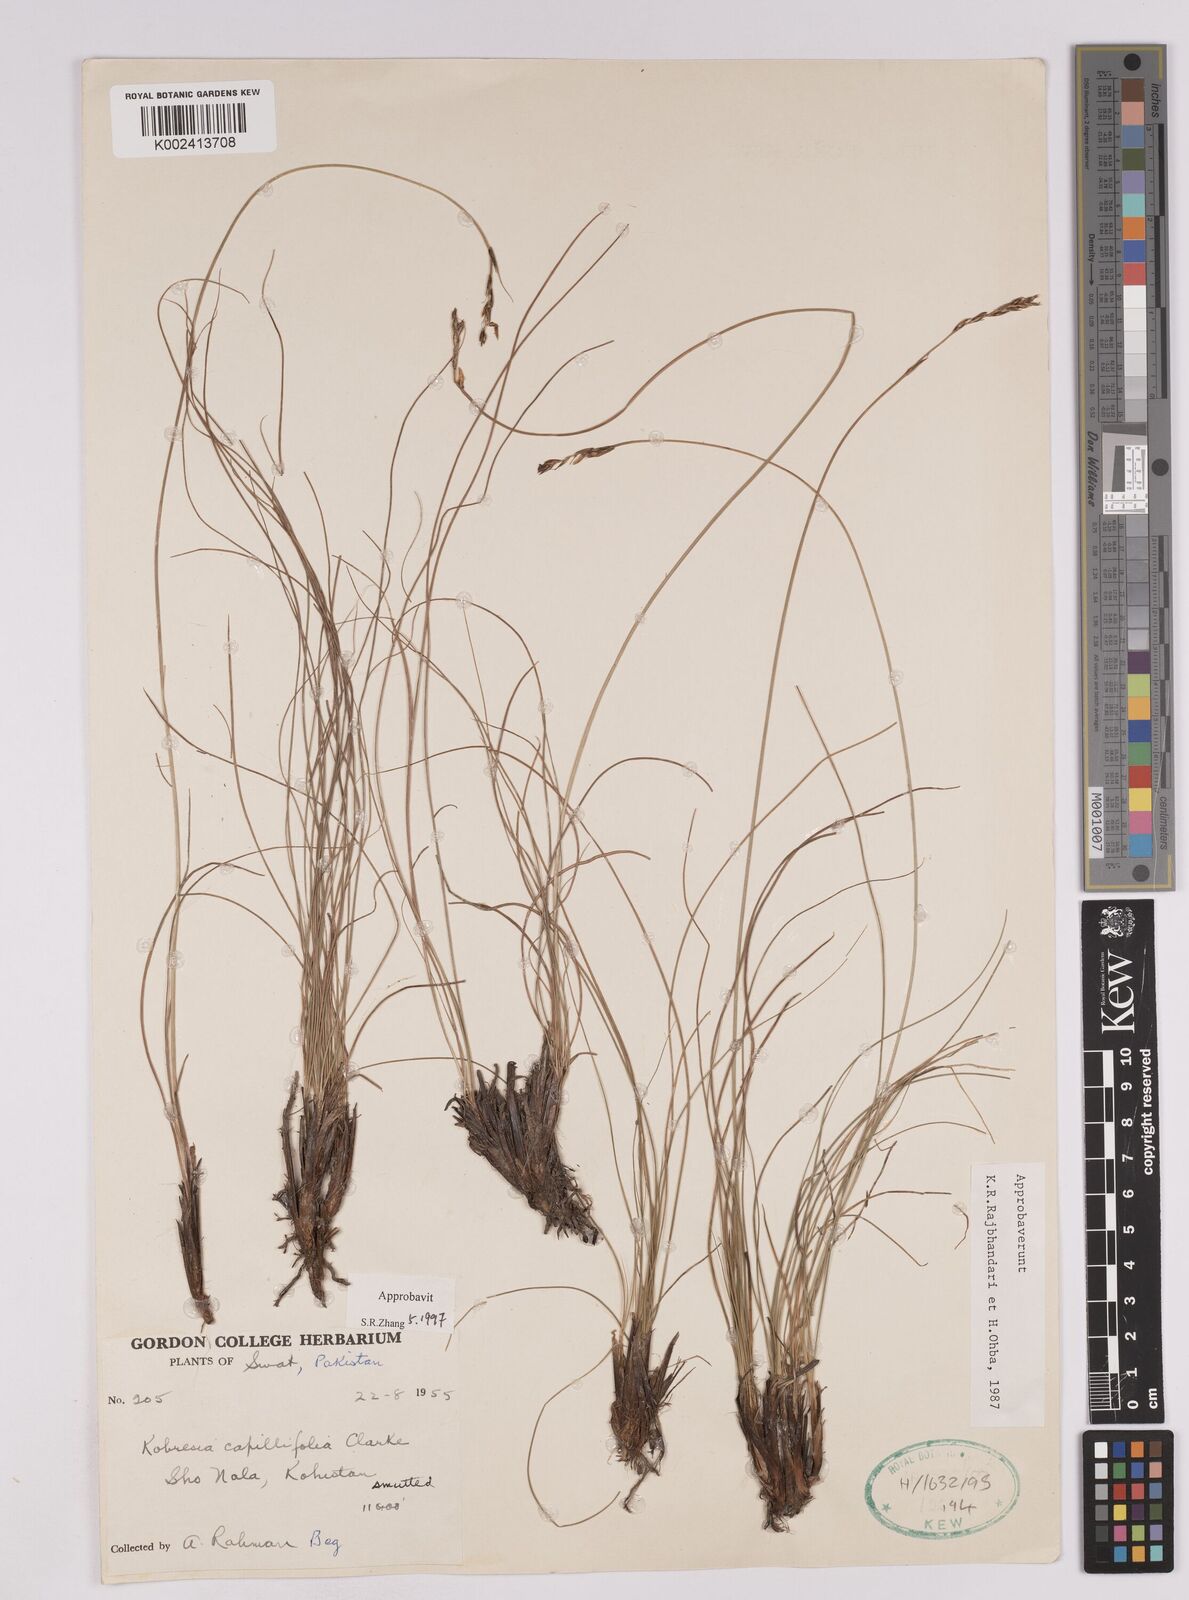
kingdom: Plantae
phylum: Tracheophyta
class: Liliopsida
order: Poales
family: Cyperaceae
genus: Carex
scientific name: Carex capillifolia
